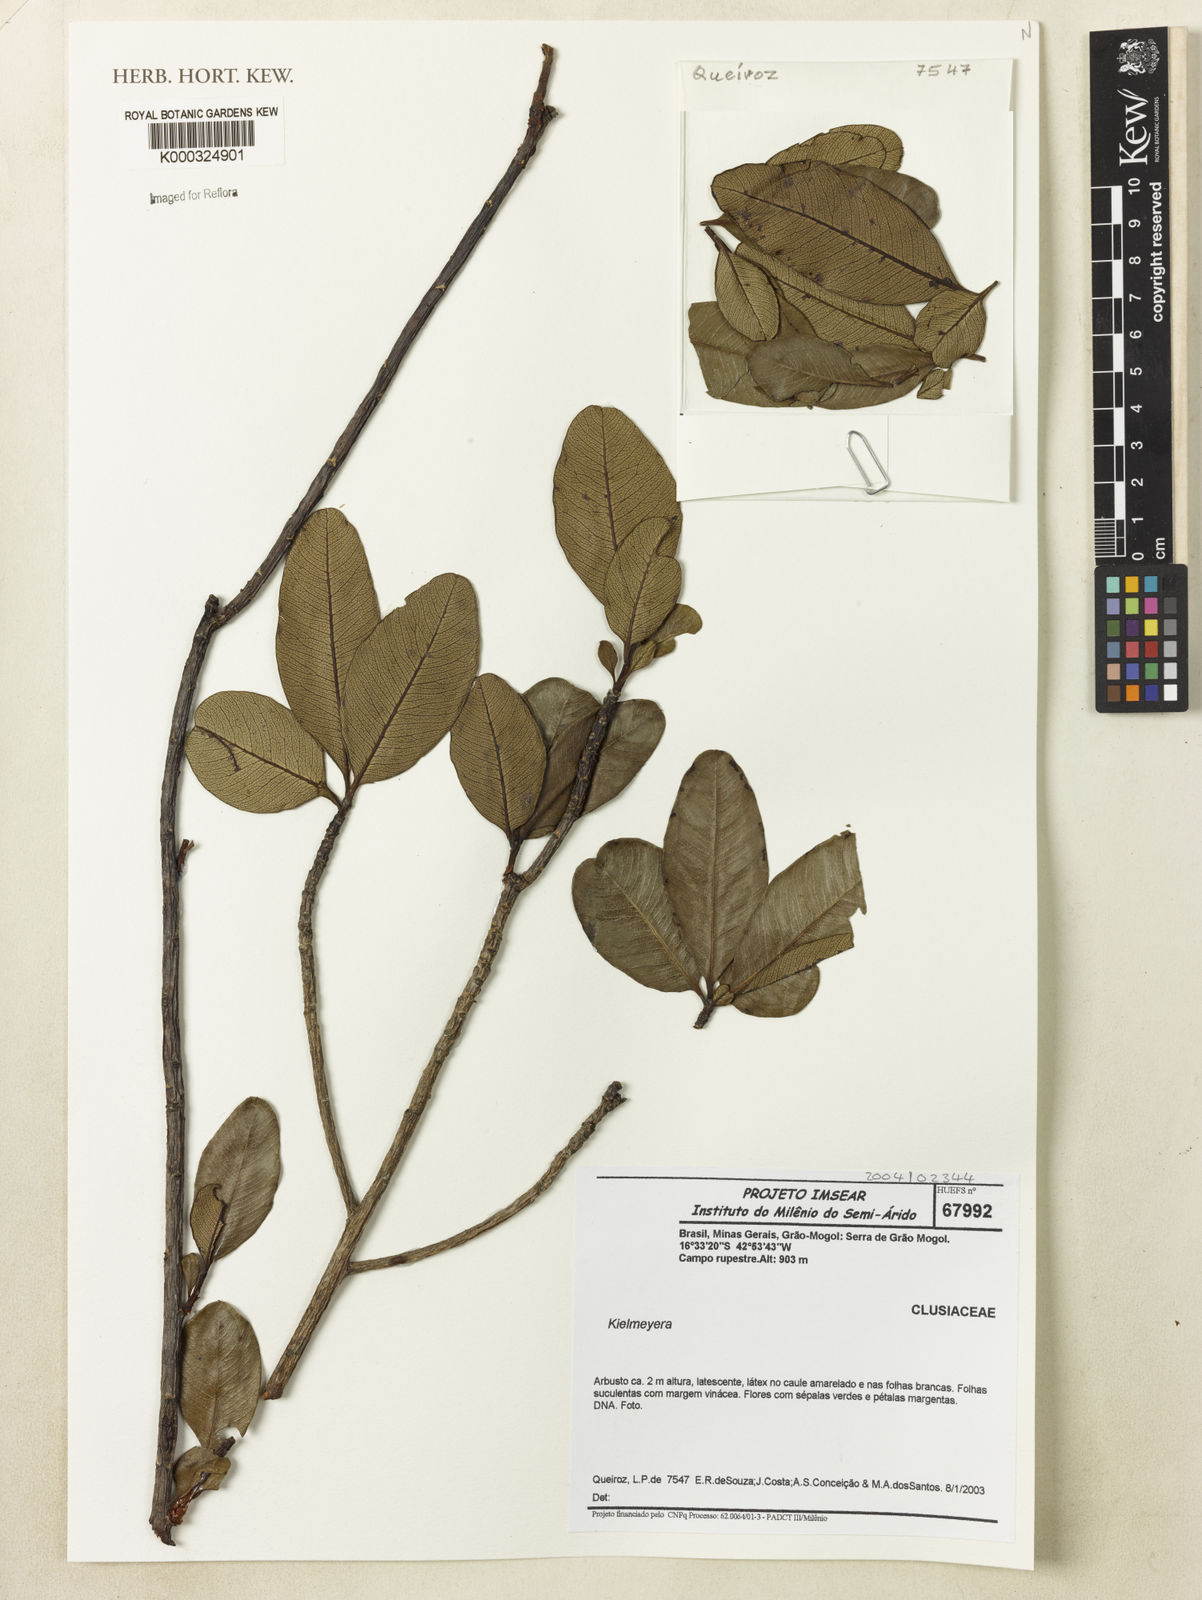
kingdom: Plantae
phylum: Tracheophyta
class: Magnoliopsida
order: Malpighiales
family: Calophyllaceae
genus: Kielmeyera
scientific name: Kielmeyera
